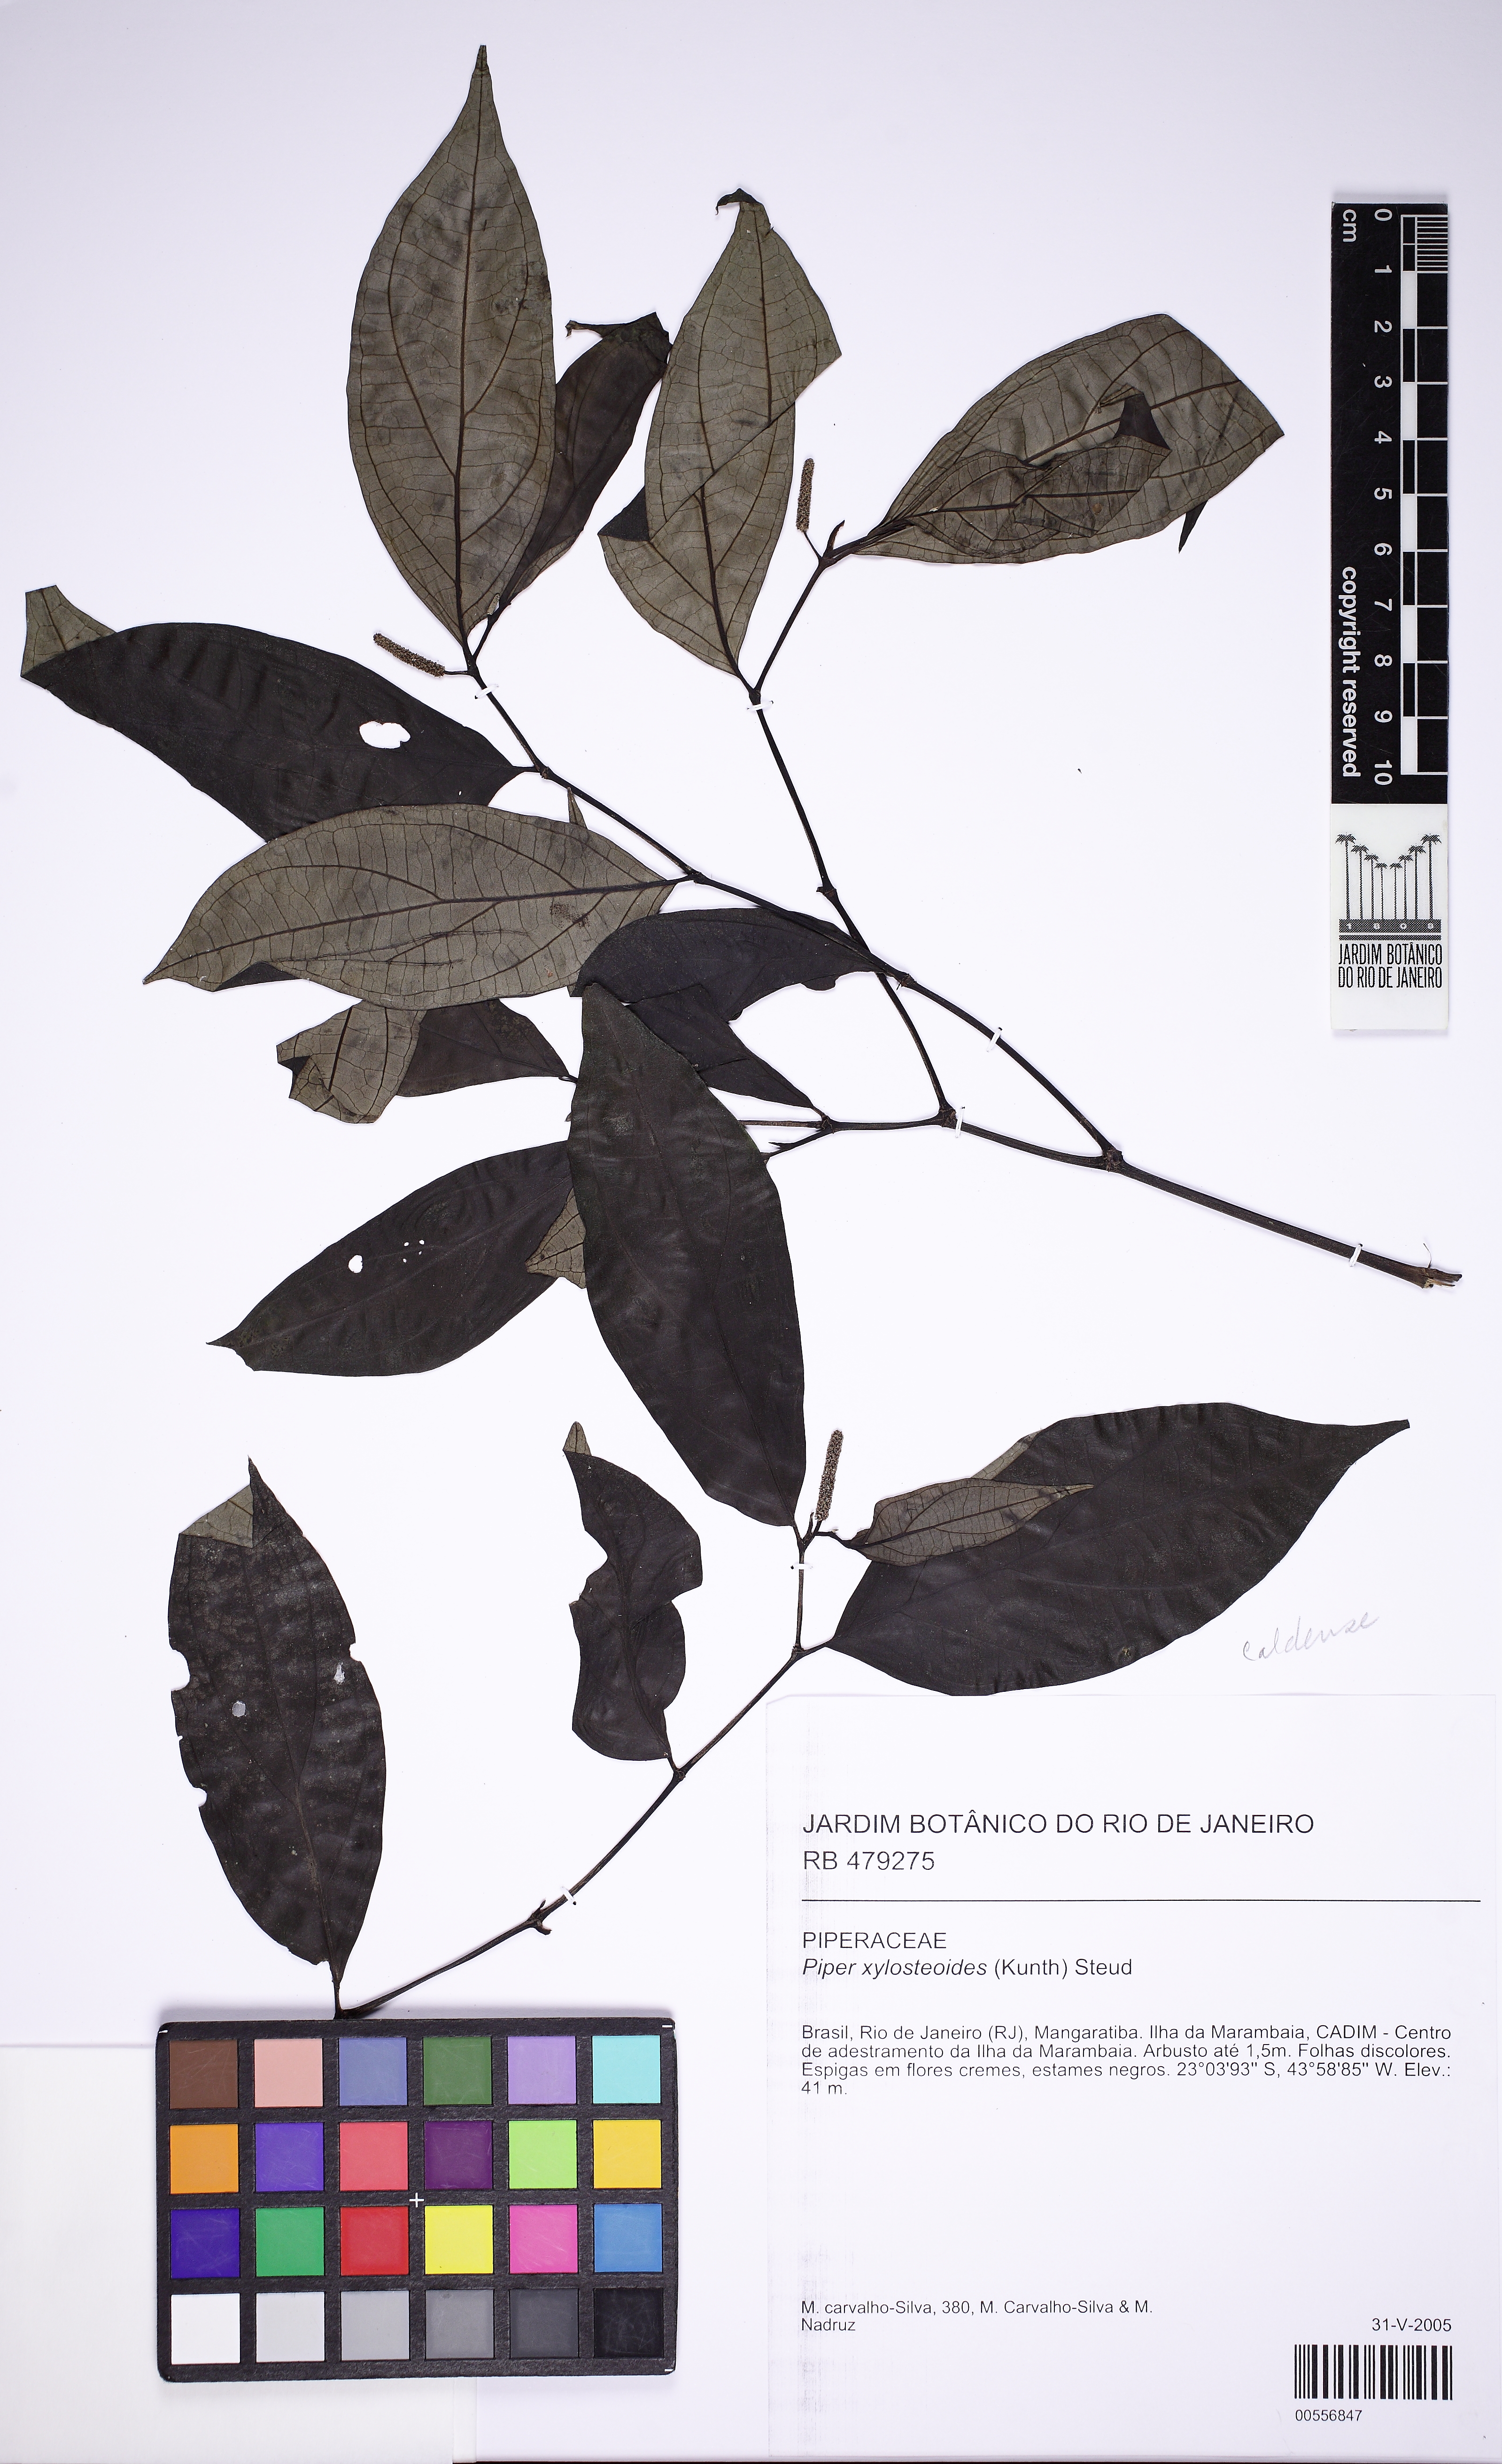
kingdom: Plantae
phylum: Tracheophyta
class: Magnoliopsida
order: Piperales
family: Piperaceae
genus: Piper
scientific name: Piper xylosteoides
